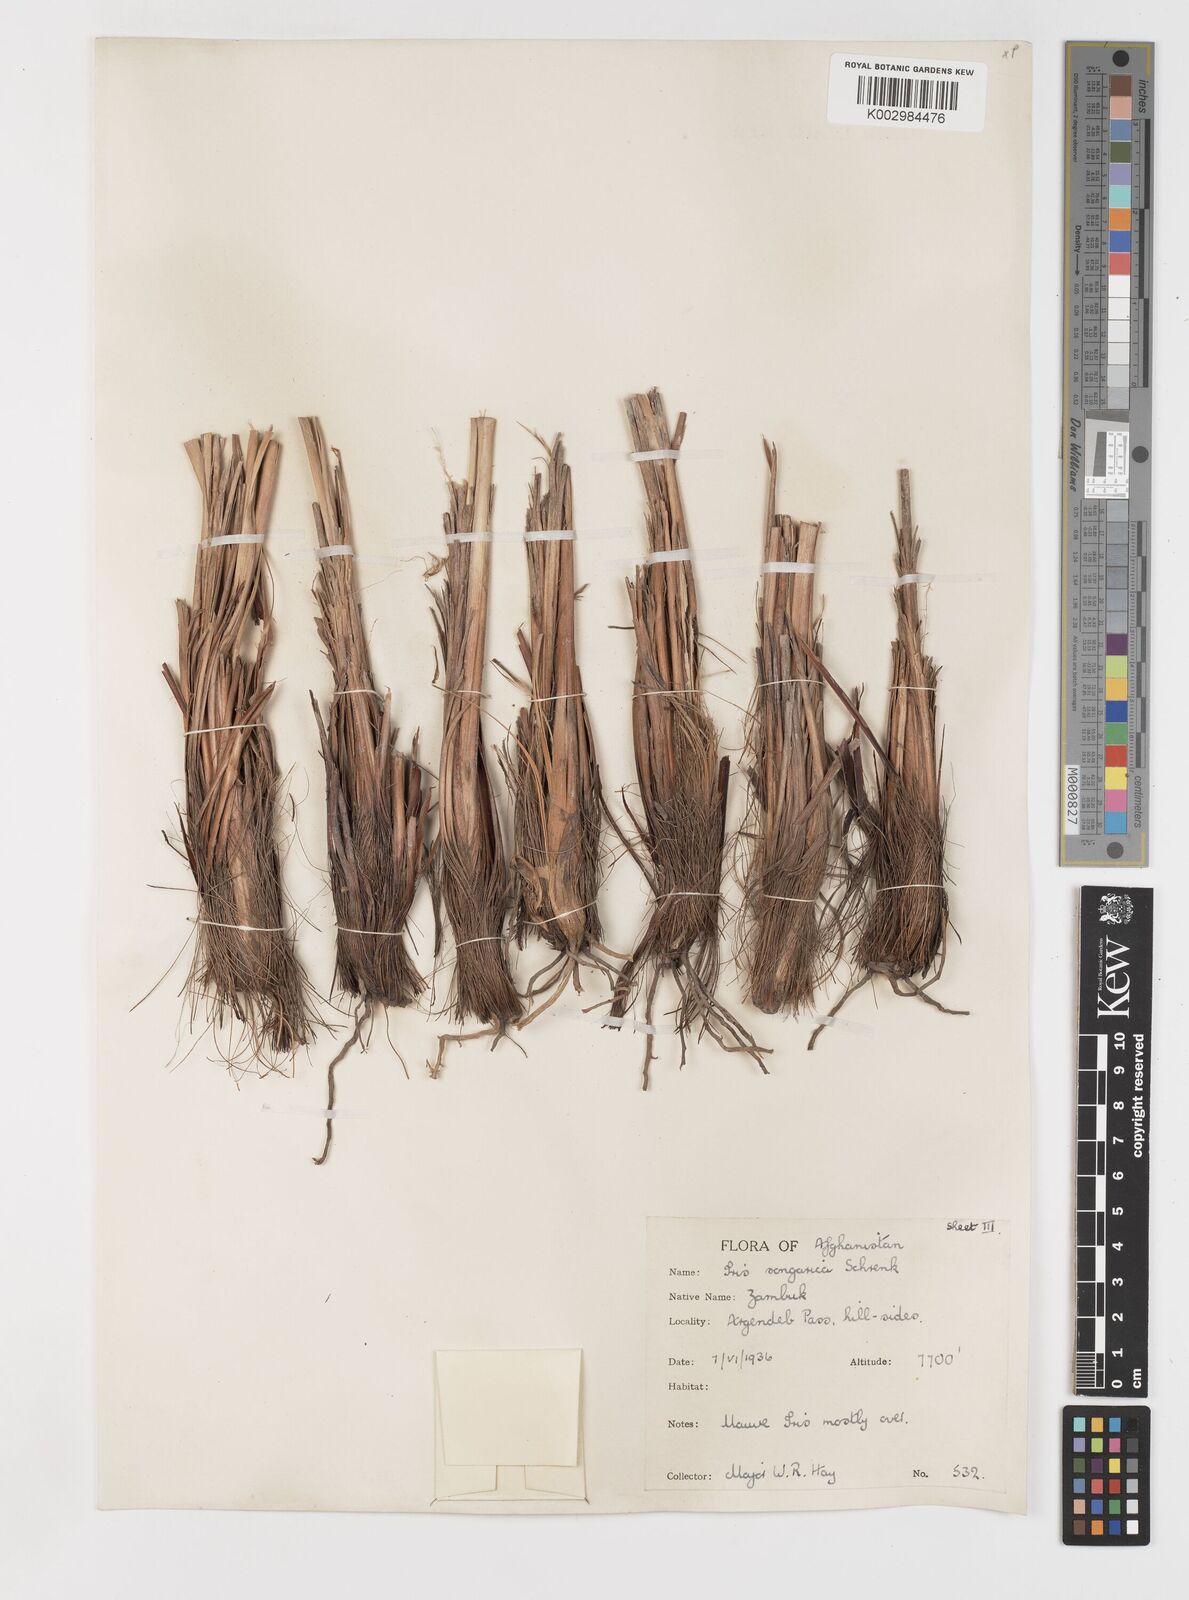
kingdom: Plantae
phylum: Tracheophyta
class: Liliopsida
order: Asparagales
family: Iridaceae
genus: Iris
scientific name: Iris songarica
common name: Songar iris
